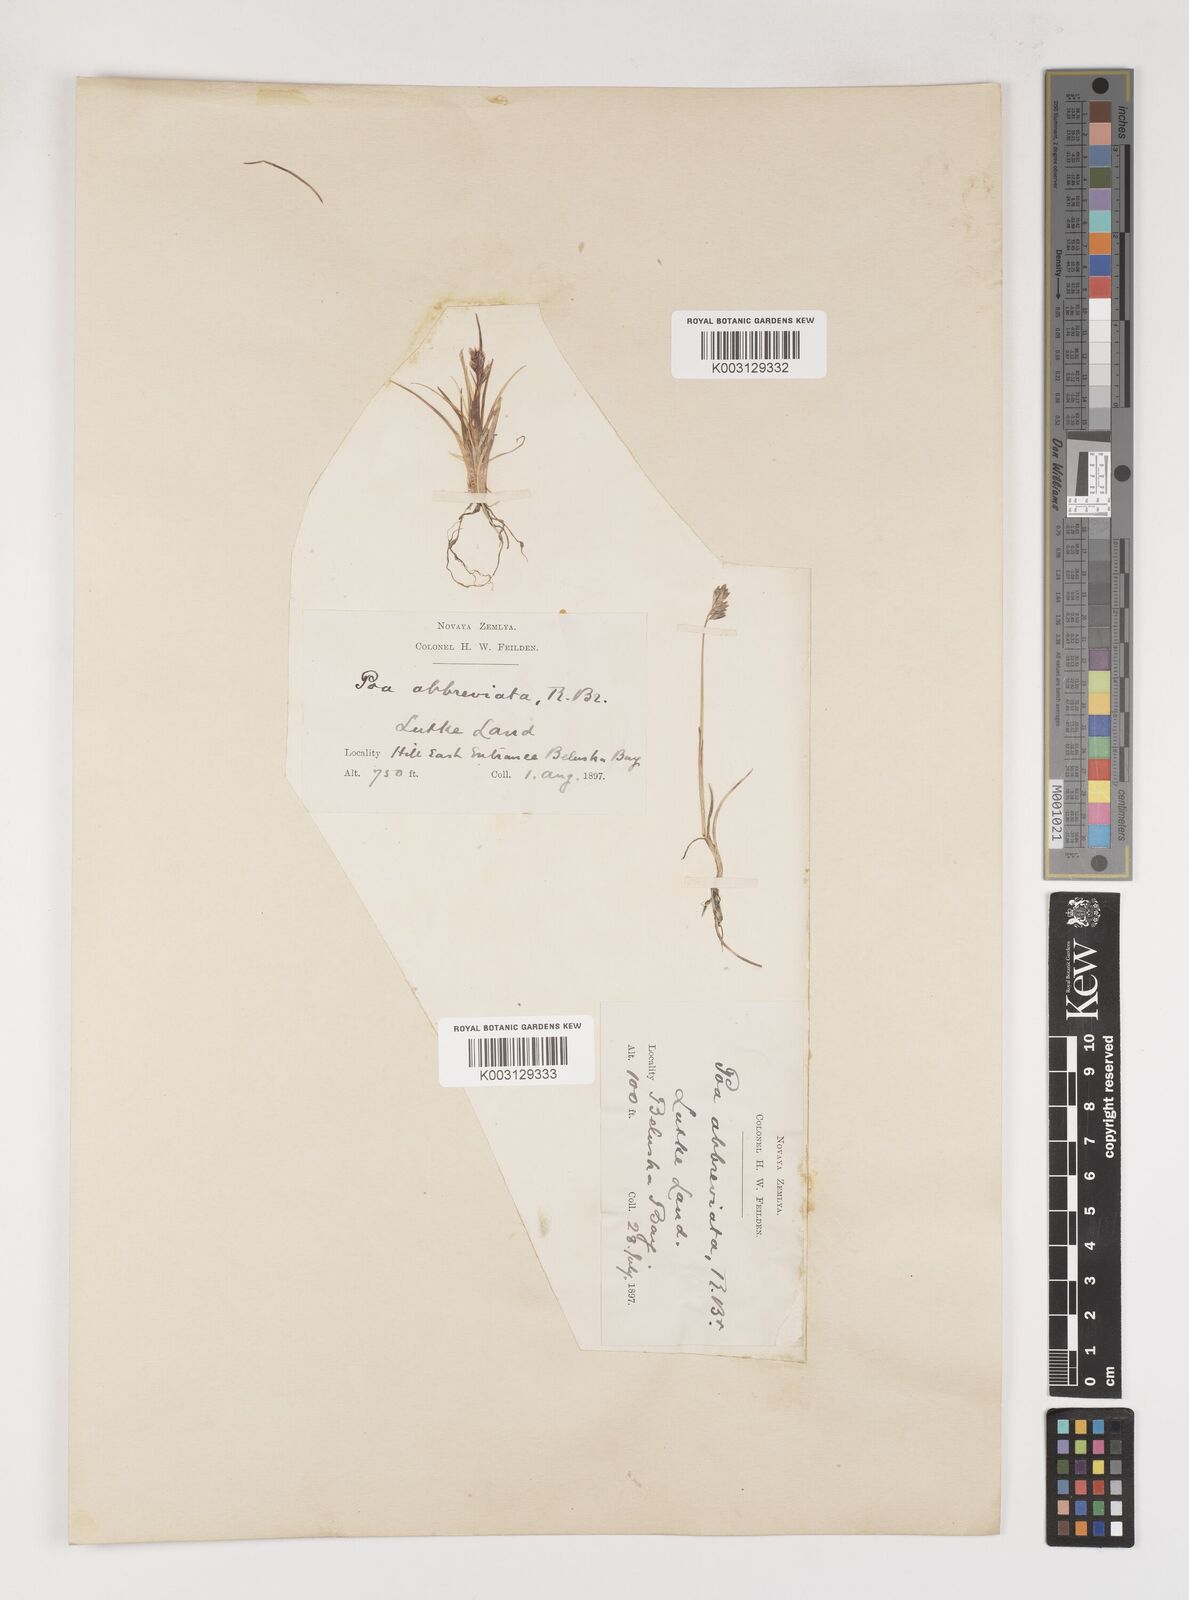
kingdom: Plantae
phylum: Tracheophyta
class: Liliopsida
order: Poales
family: Poaceae
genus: Poa
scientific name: Poa abbreviata
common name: Abbreviated bluegrass
